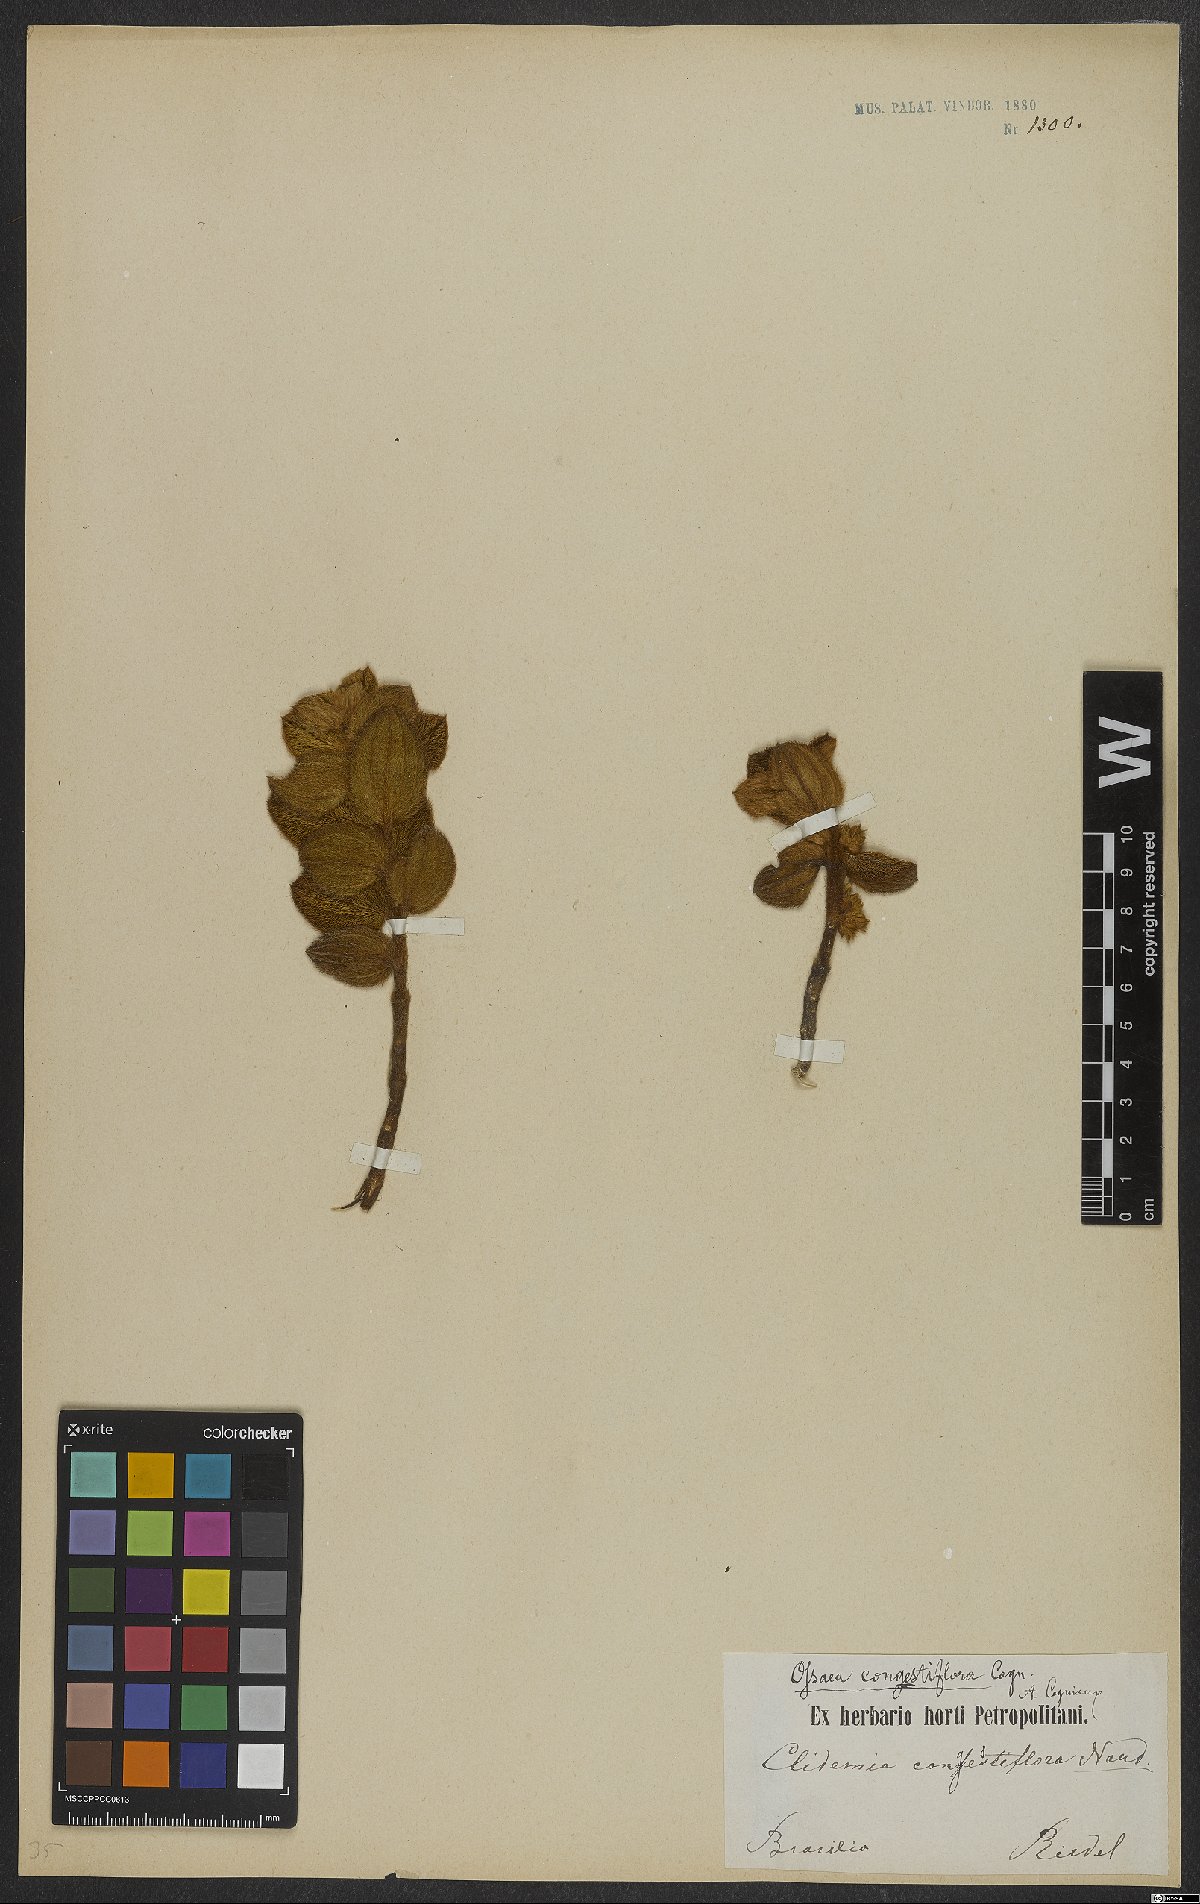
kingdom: Plantae
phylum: Tracheophyta
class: Magnoliopsida
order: Myrtales
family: Melastomataceae
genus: Miconia
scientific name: Miconia leacongestiflora
